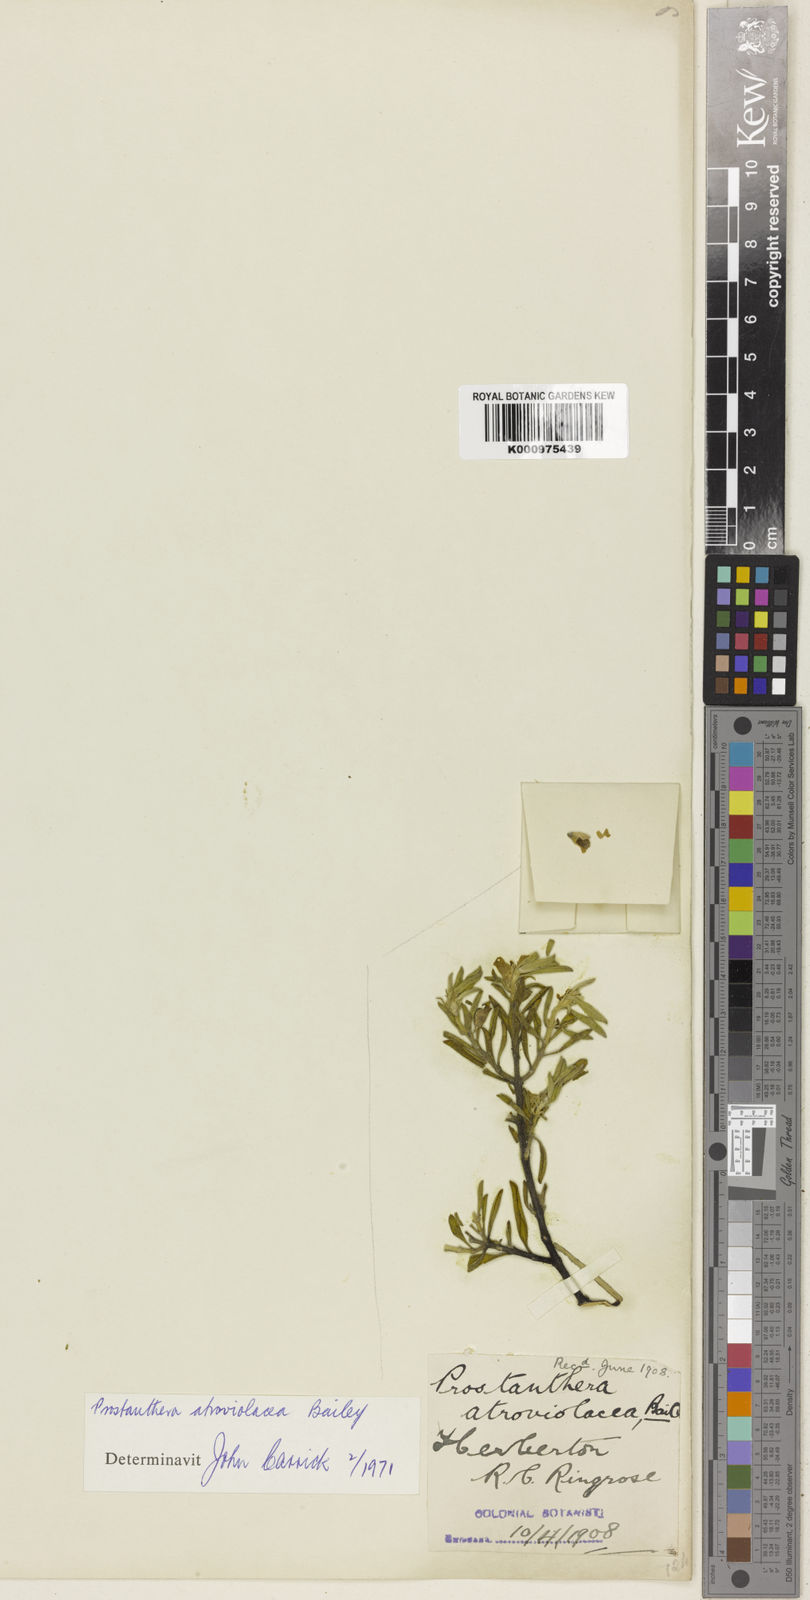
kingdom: Plantae
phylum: Tracheophyta
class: Magnoliopsida
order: Lamiales
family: Lamiaceae
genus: Prostanthera
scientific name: Prostanthera clotteniana
